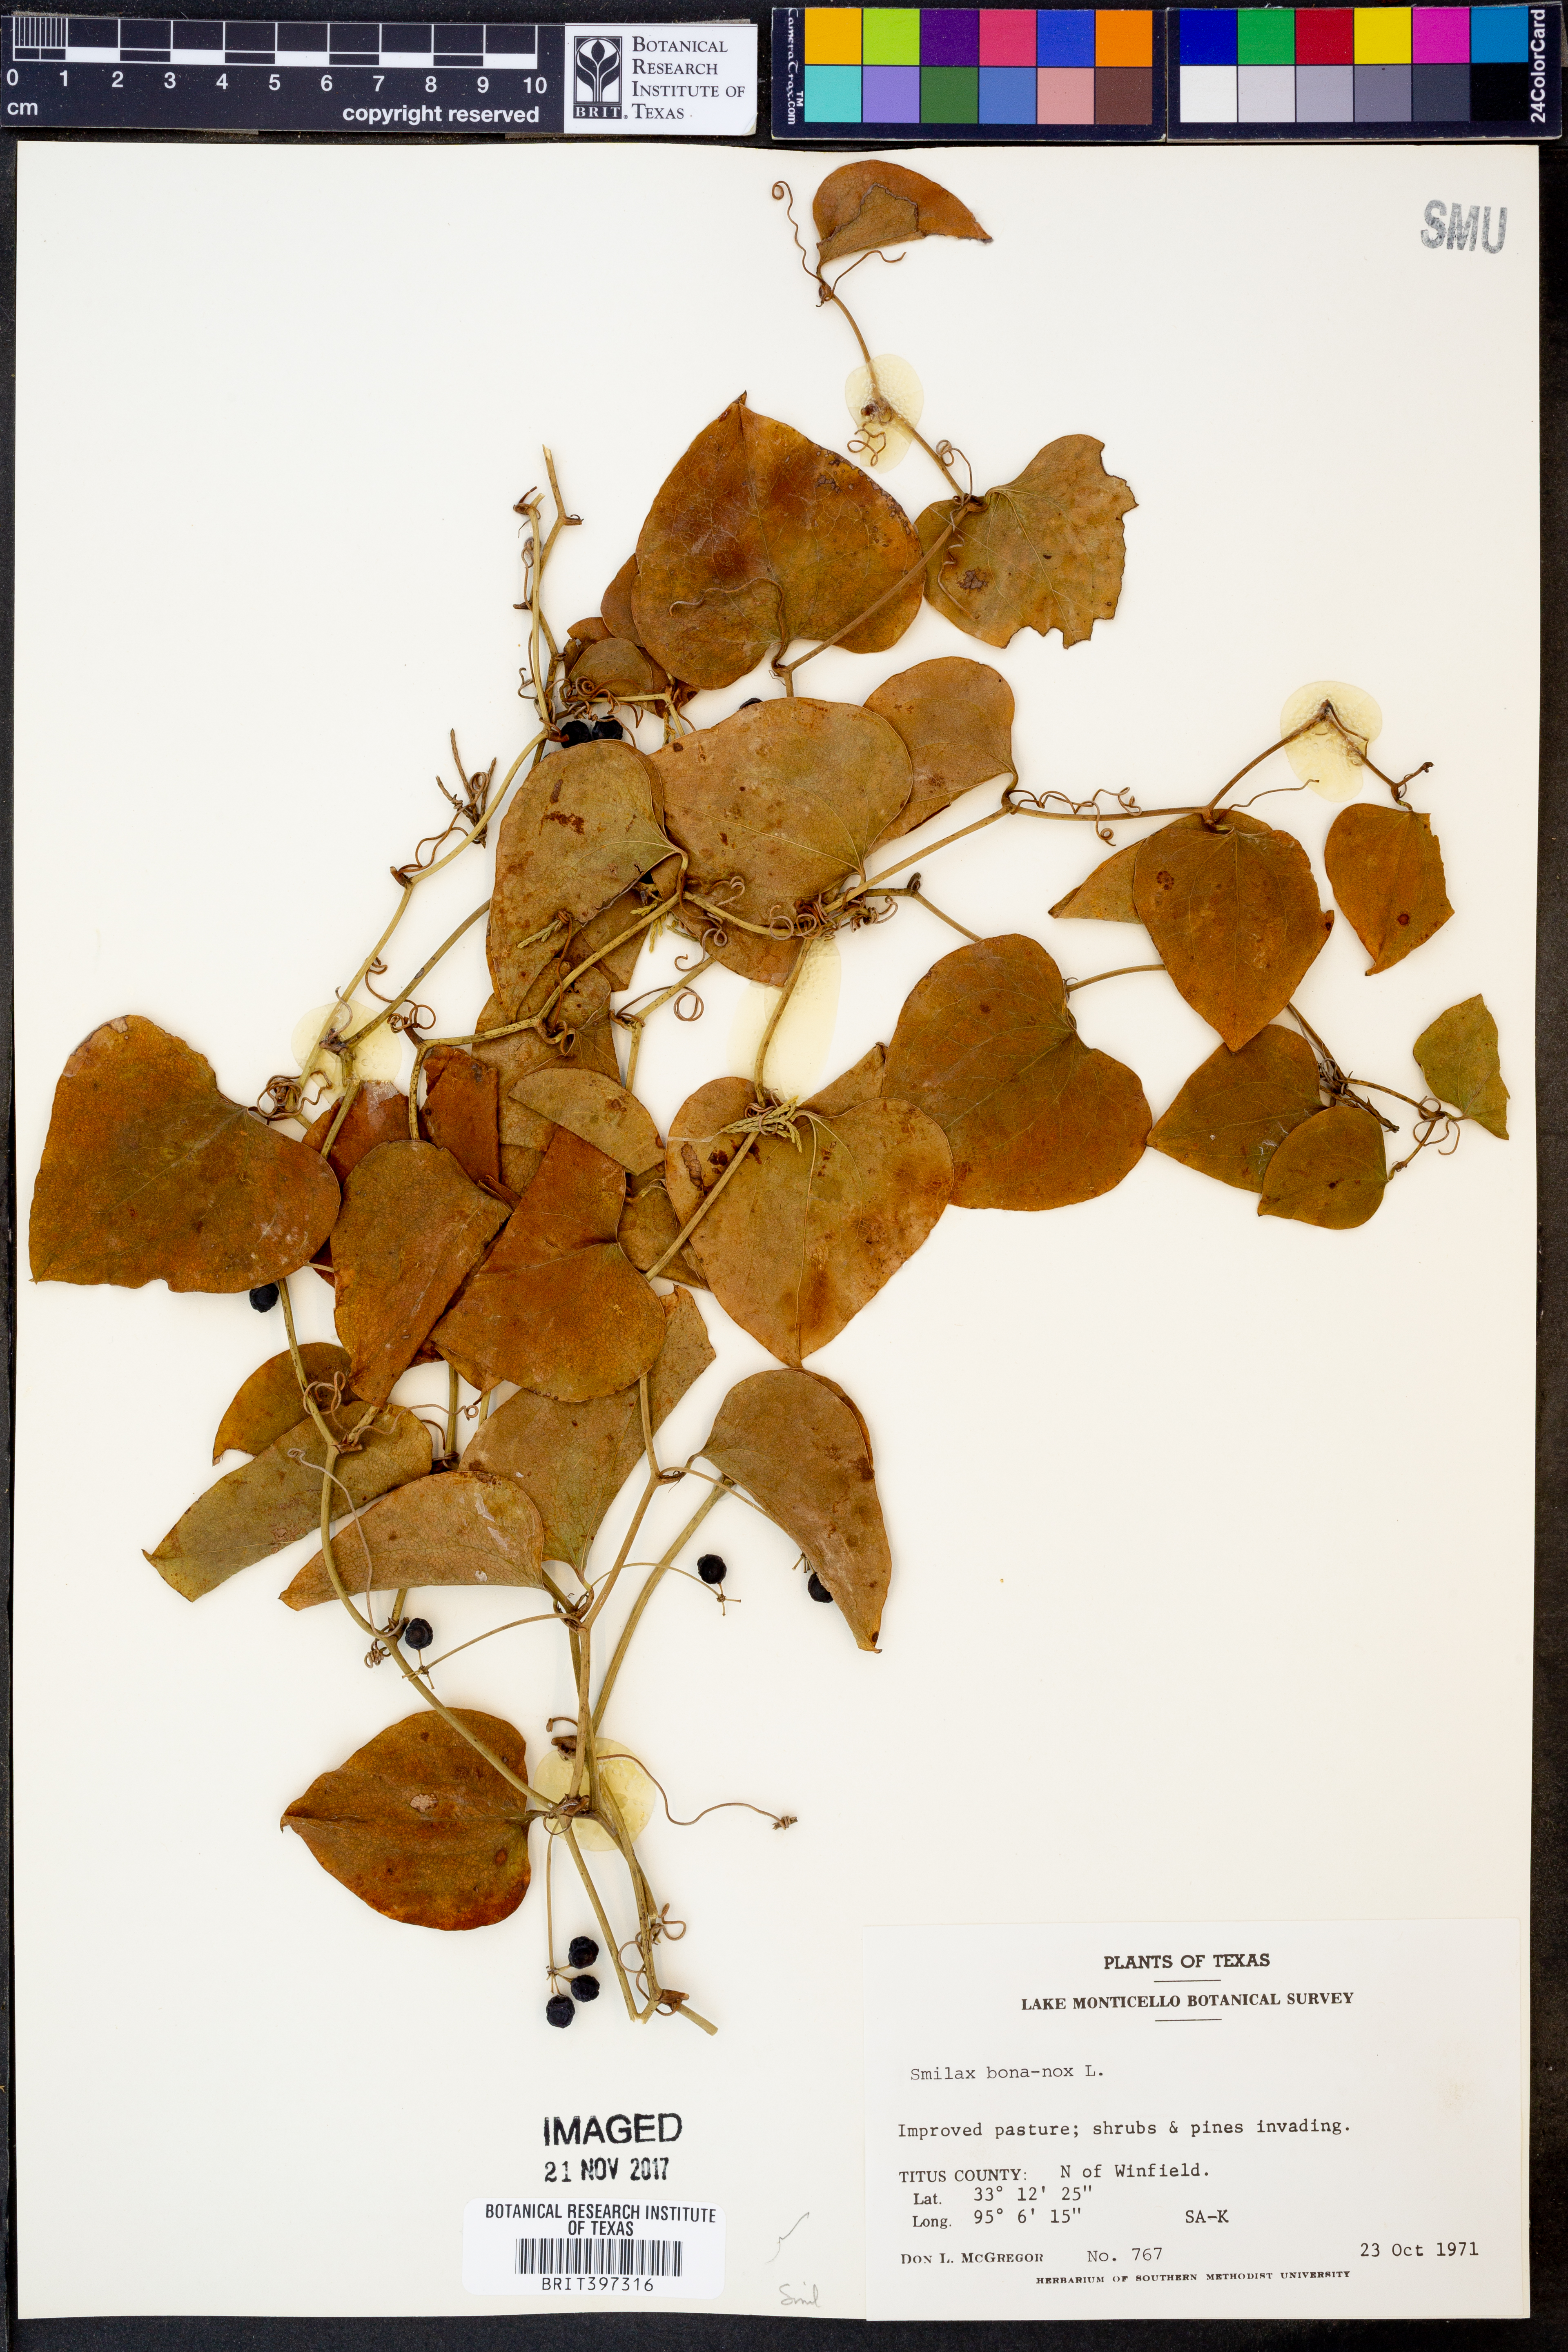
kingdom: Plantae
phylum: Tracheophyta
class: Liliopsida
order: Liliales
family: Smilacaceae
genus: Smilax
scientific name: Smilax bona-nox
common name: Catbrier
